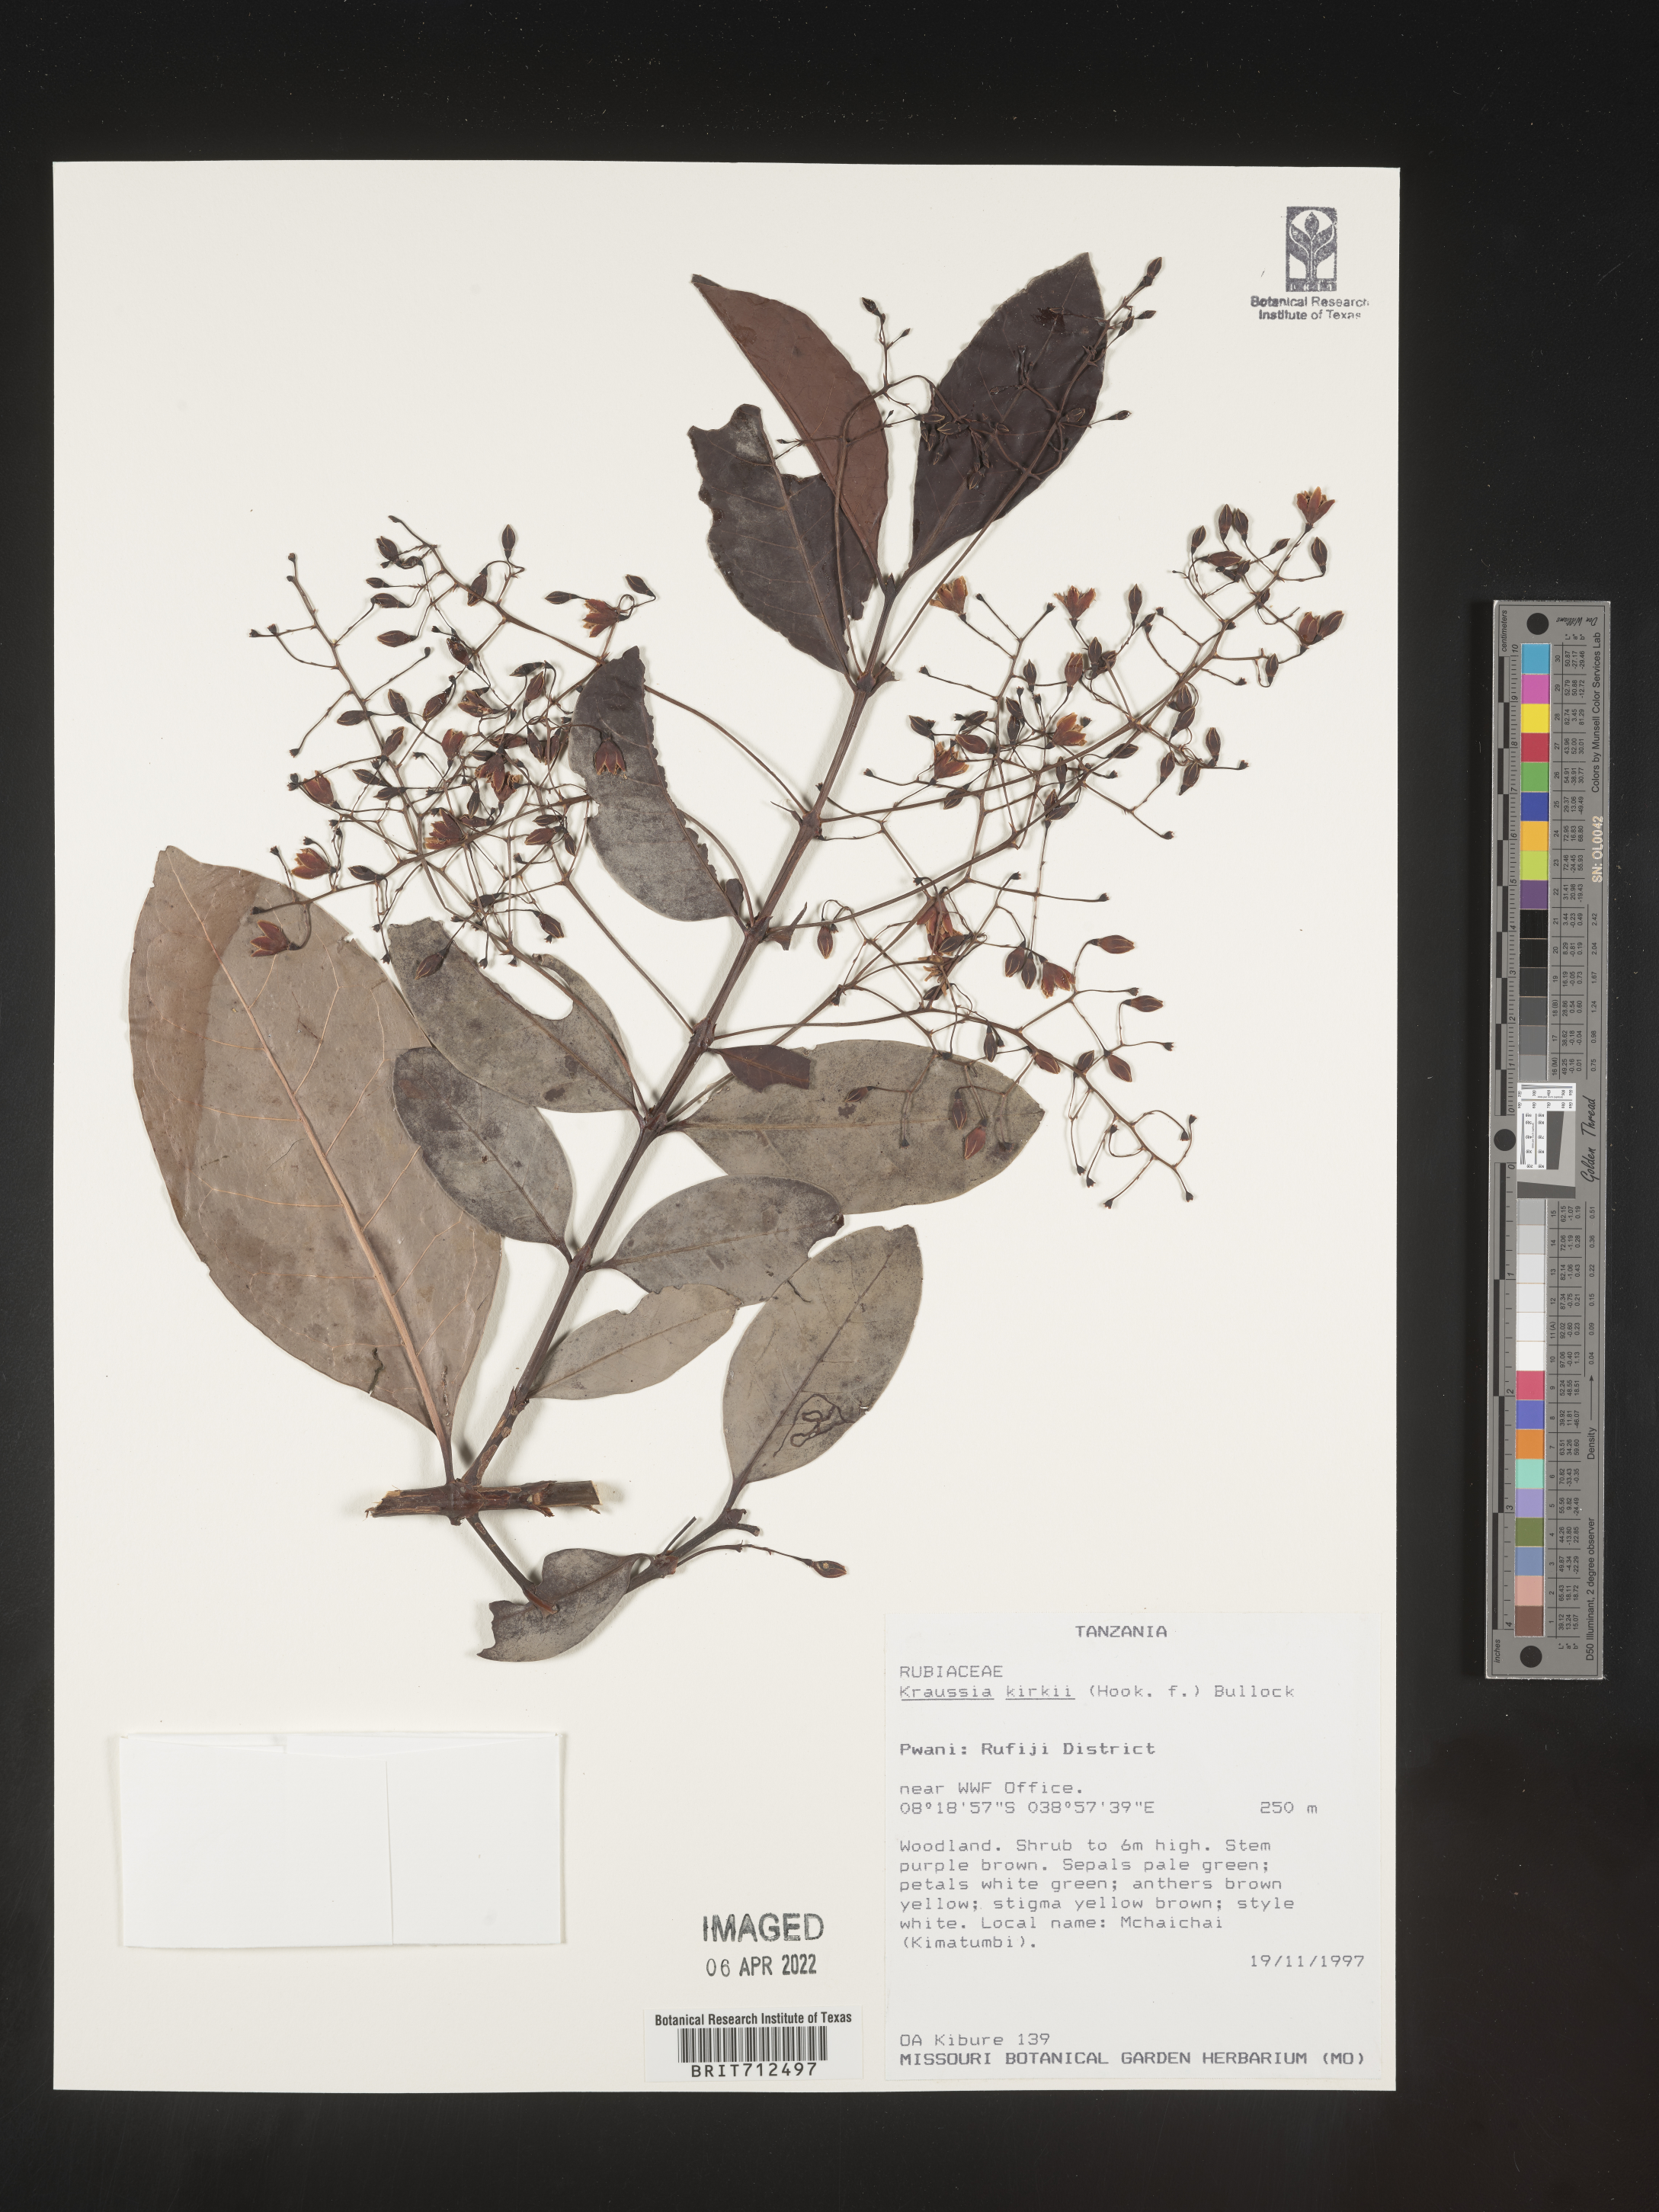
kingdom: Plantae
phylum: Tracheophyta
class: Magnoliopsida
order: Gentianales
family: Rubiaceae
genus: Kraussia
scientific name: Kraussia
